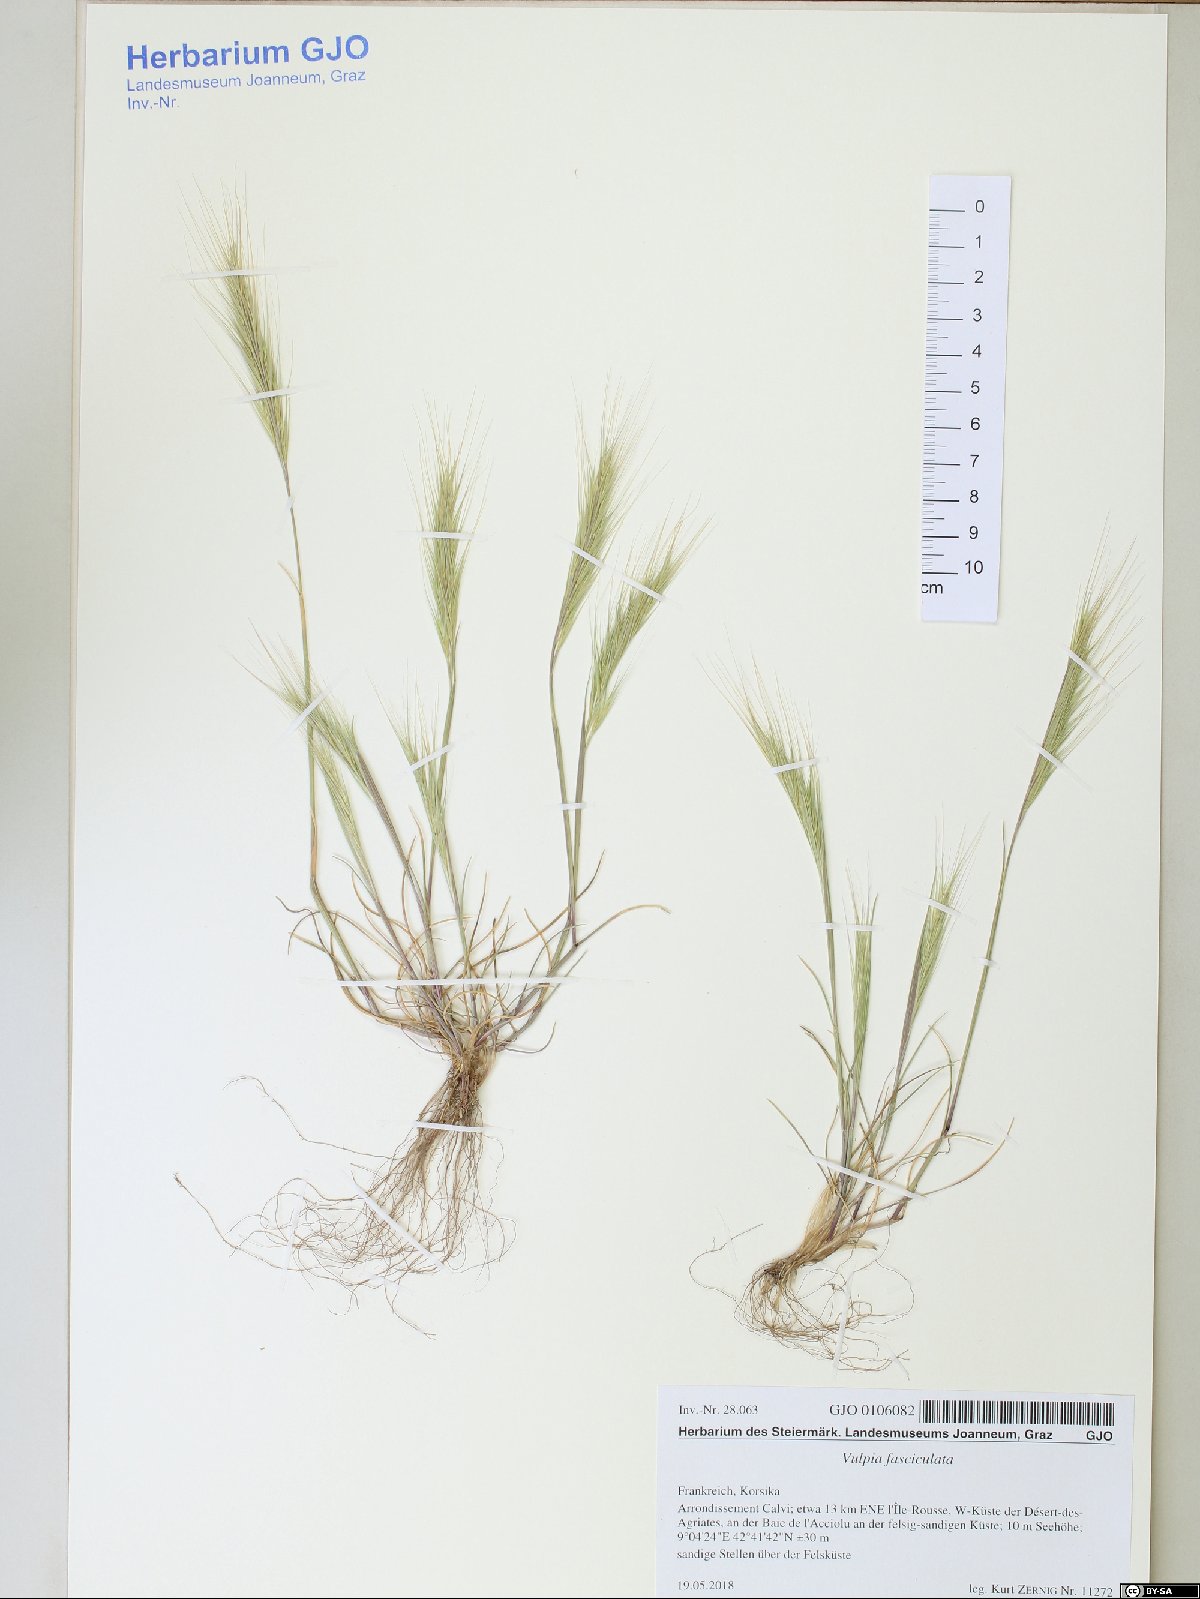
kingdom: Plantae
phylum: Tracheophyta
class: Liliopsida
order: Poales
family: Poaceae
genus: Festuca
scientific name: Festuca fasciculata
